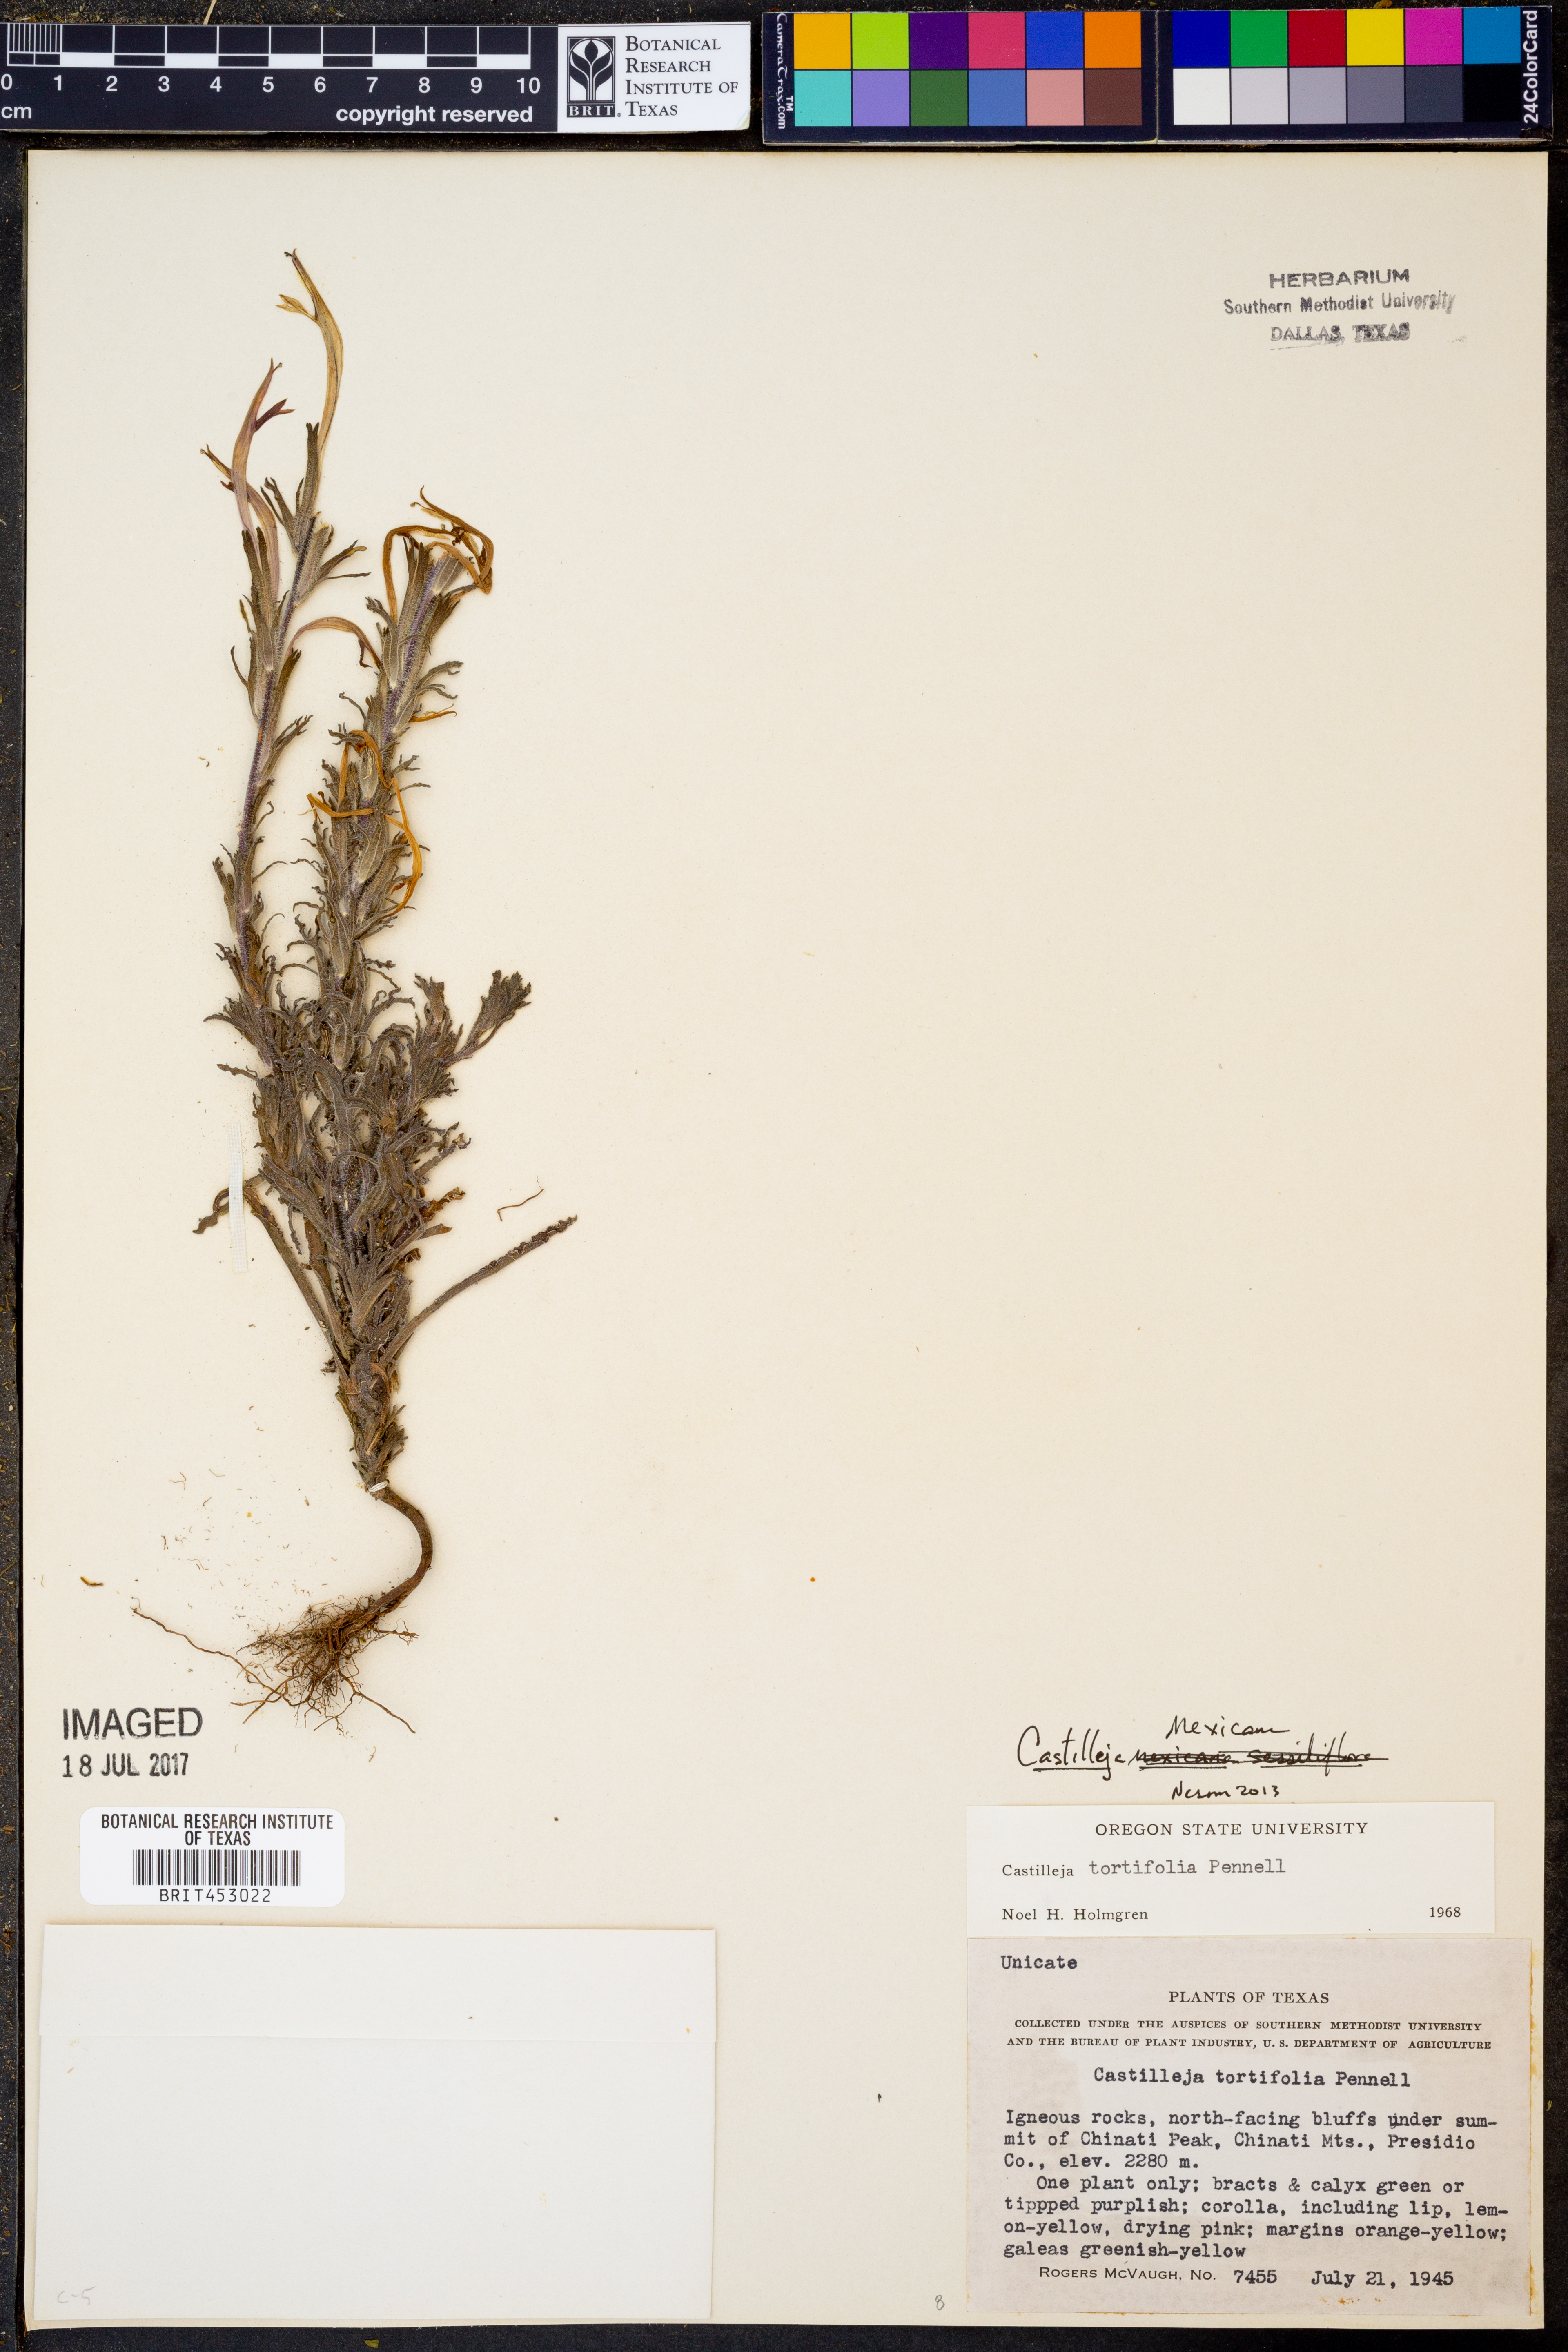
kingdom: Plantae
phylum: Tracheophyta
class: Magnoliopsida
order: Lamiales
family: Orobanchaceae
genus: Castilleja
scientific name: Castilleja mexicana
